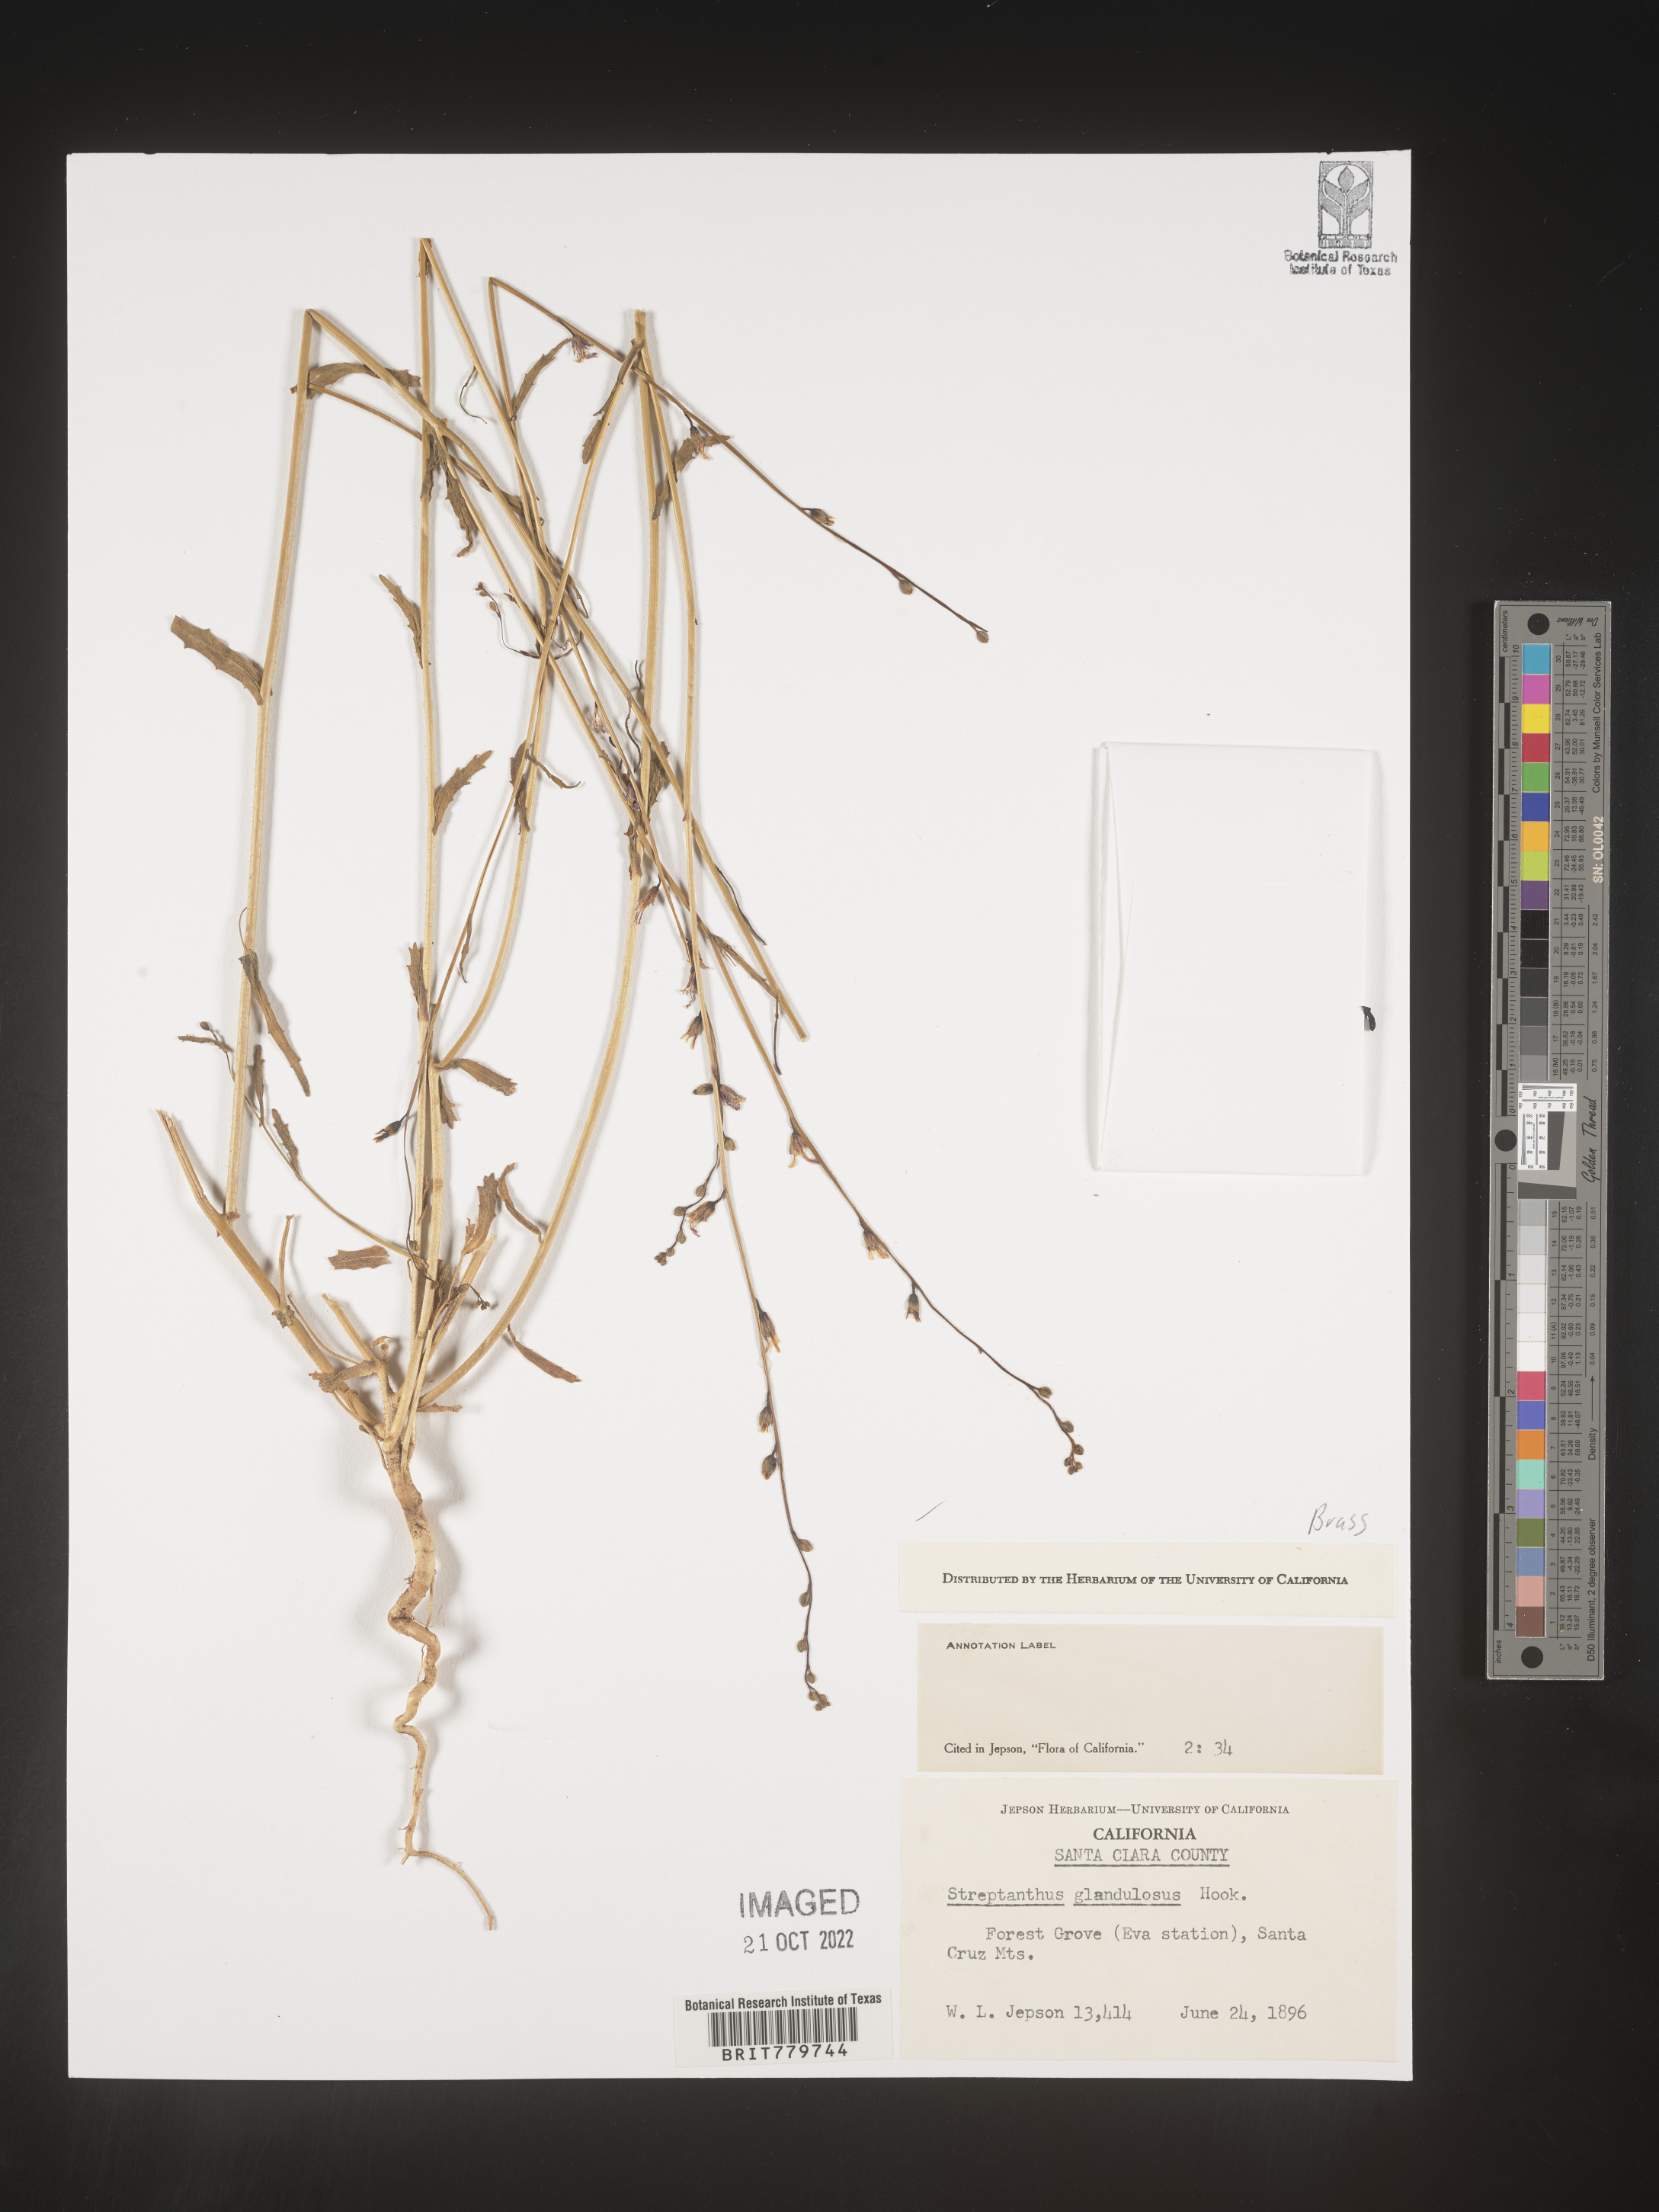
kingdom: Plantae
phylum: Tracheophyta
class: Magnoliopsida
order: Brassicales
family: Brassicaceae
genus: Streptanthus
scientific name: Streptanthus
